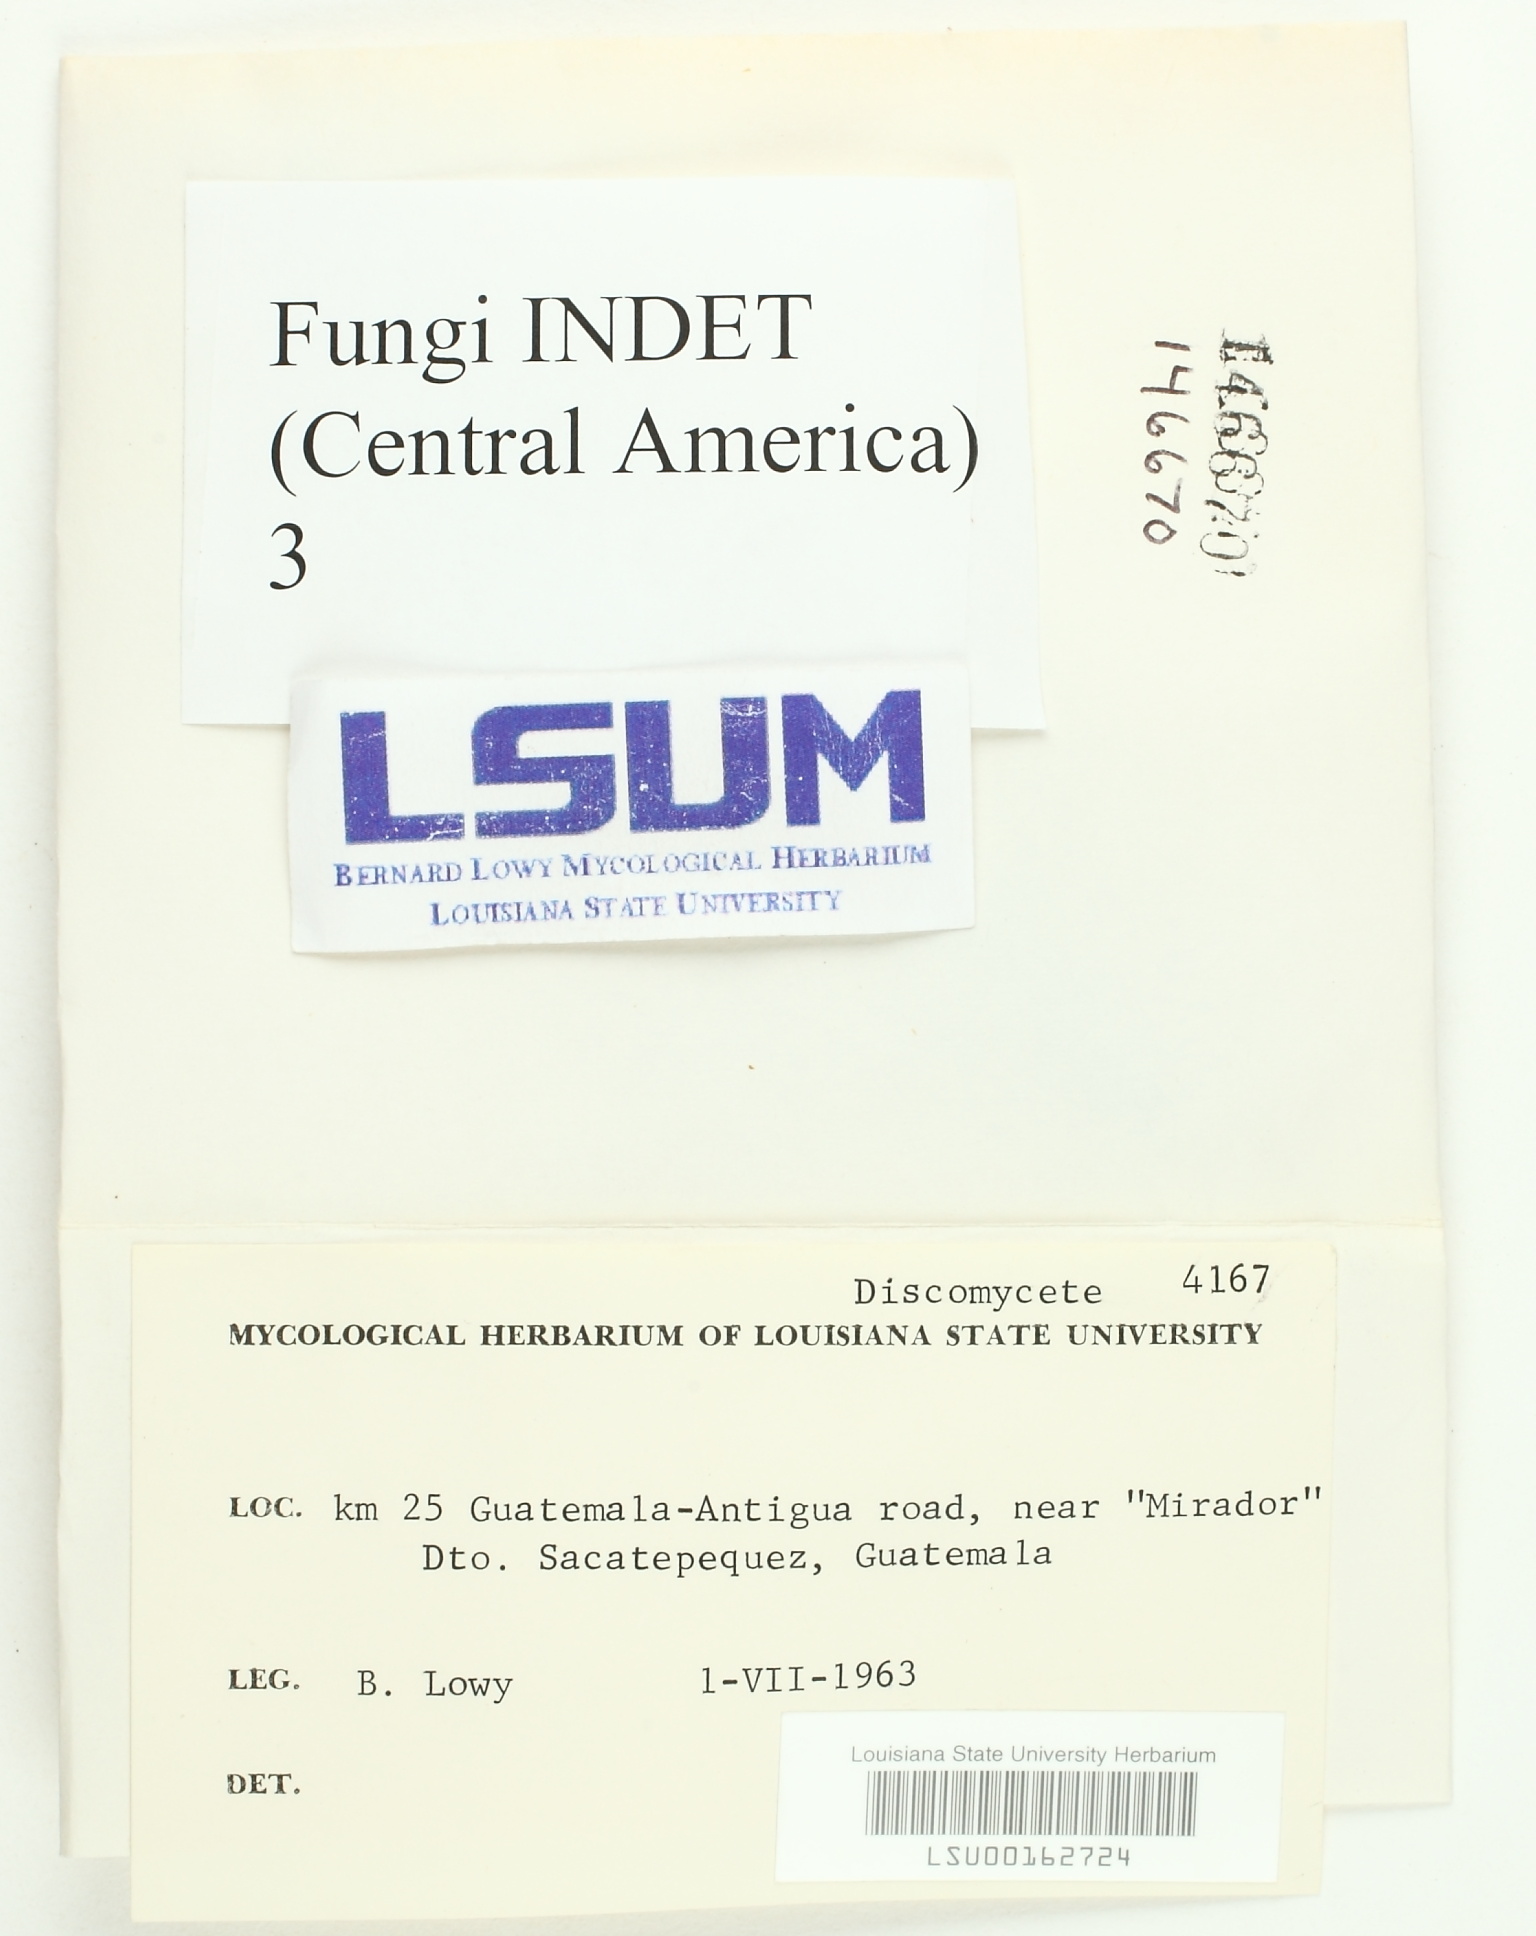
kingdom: Fungi
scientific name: Fungi
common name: Fungi
